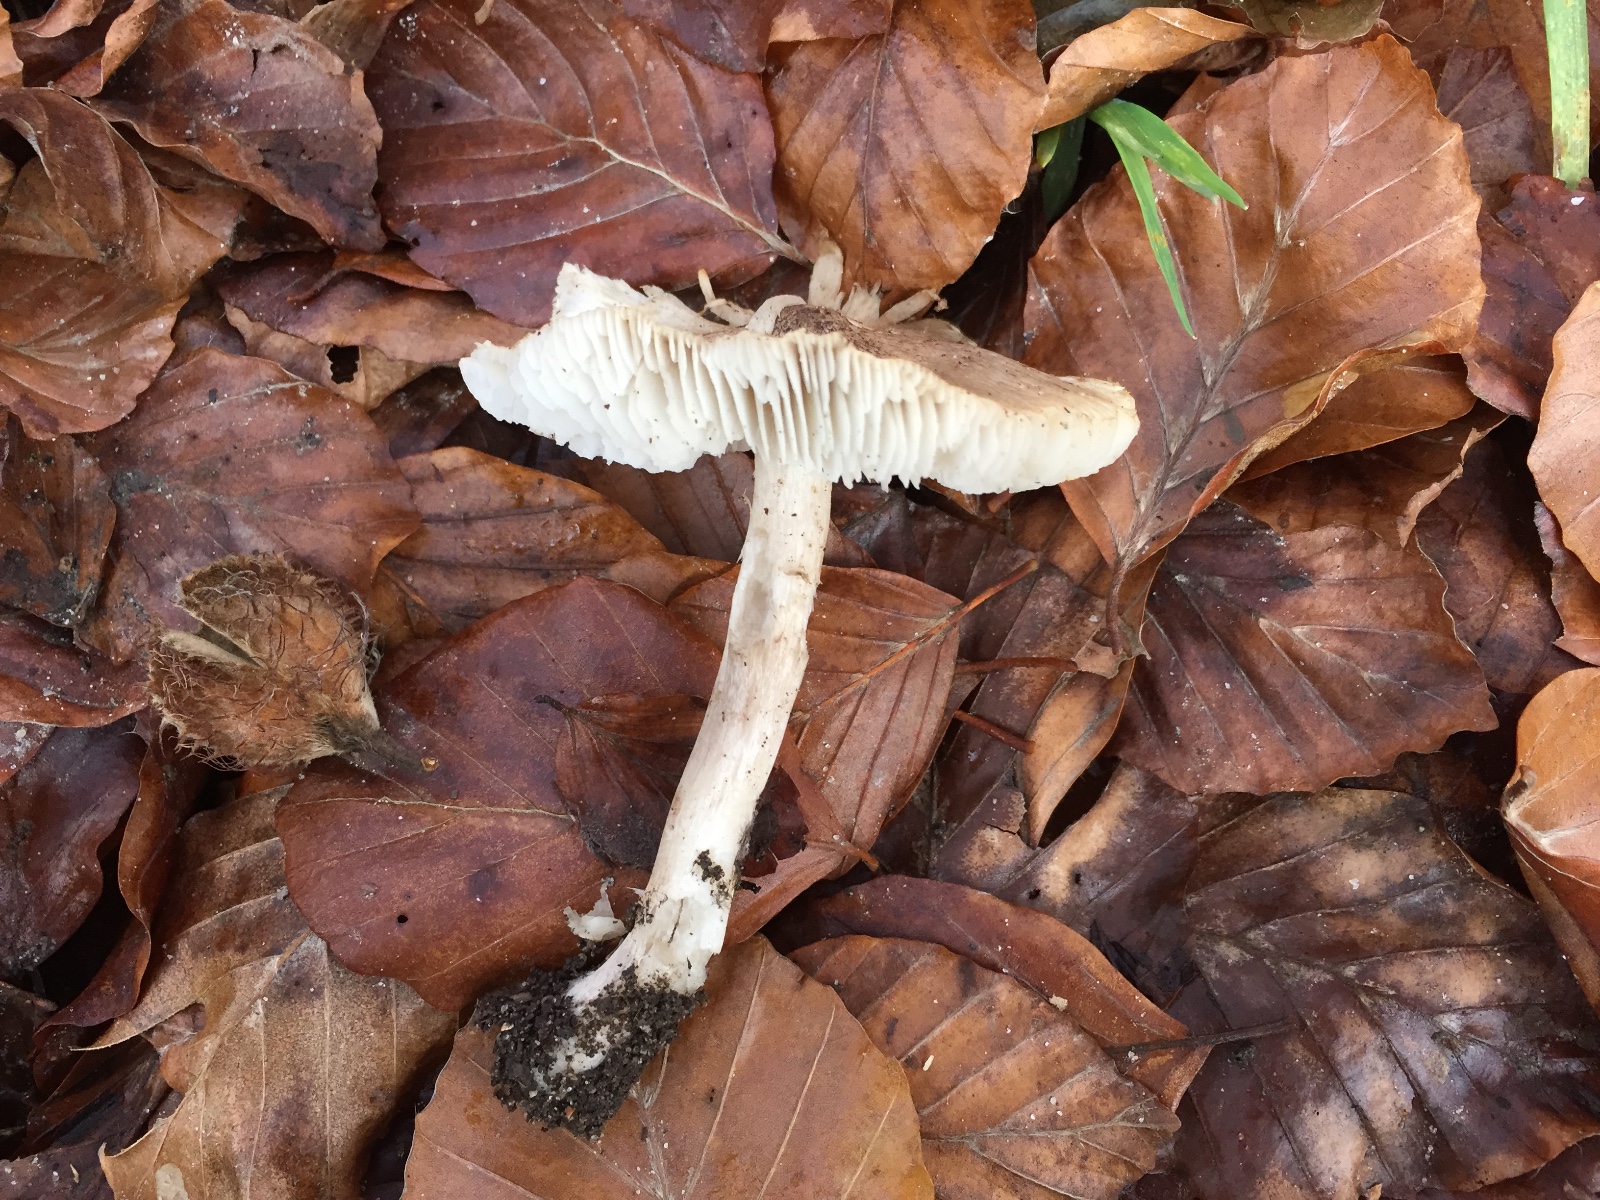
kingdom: Fungi
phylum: Basidiomycota
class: Agaricomycetes
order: Agaricales
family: Tricholomataceae
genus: Tricholoma
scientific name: Tricholoma argyraceum
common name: slør-ridderhat
